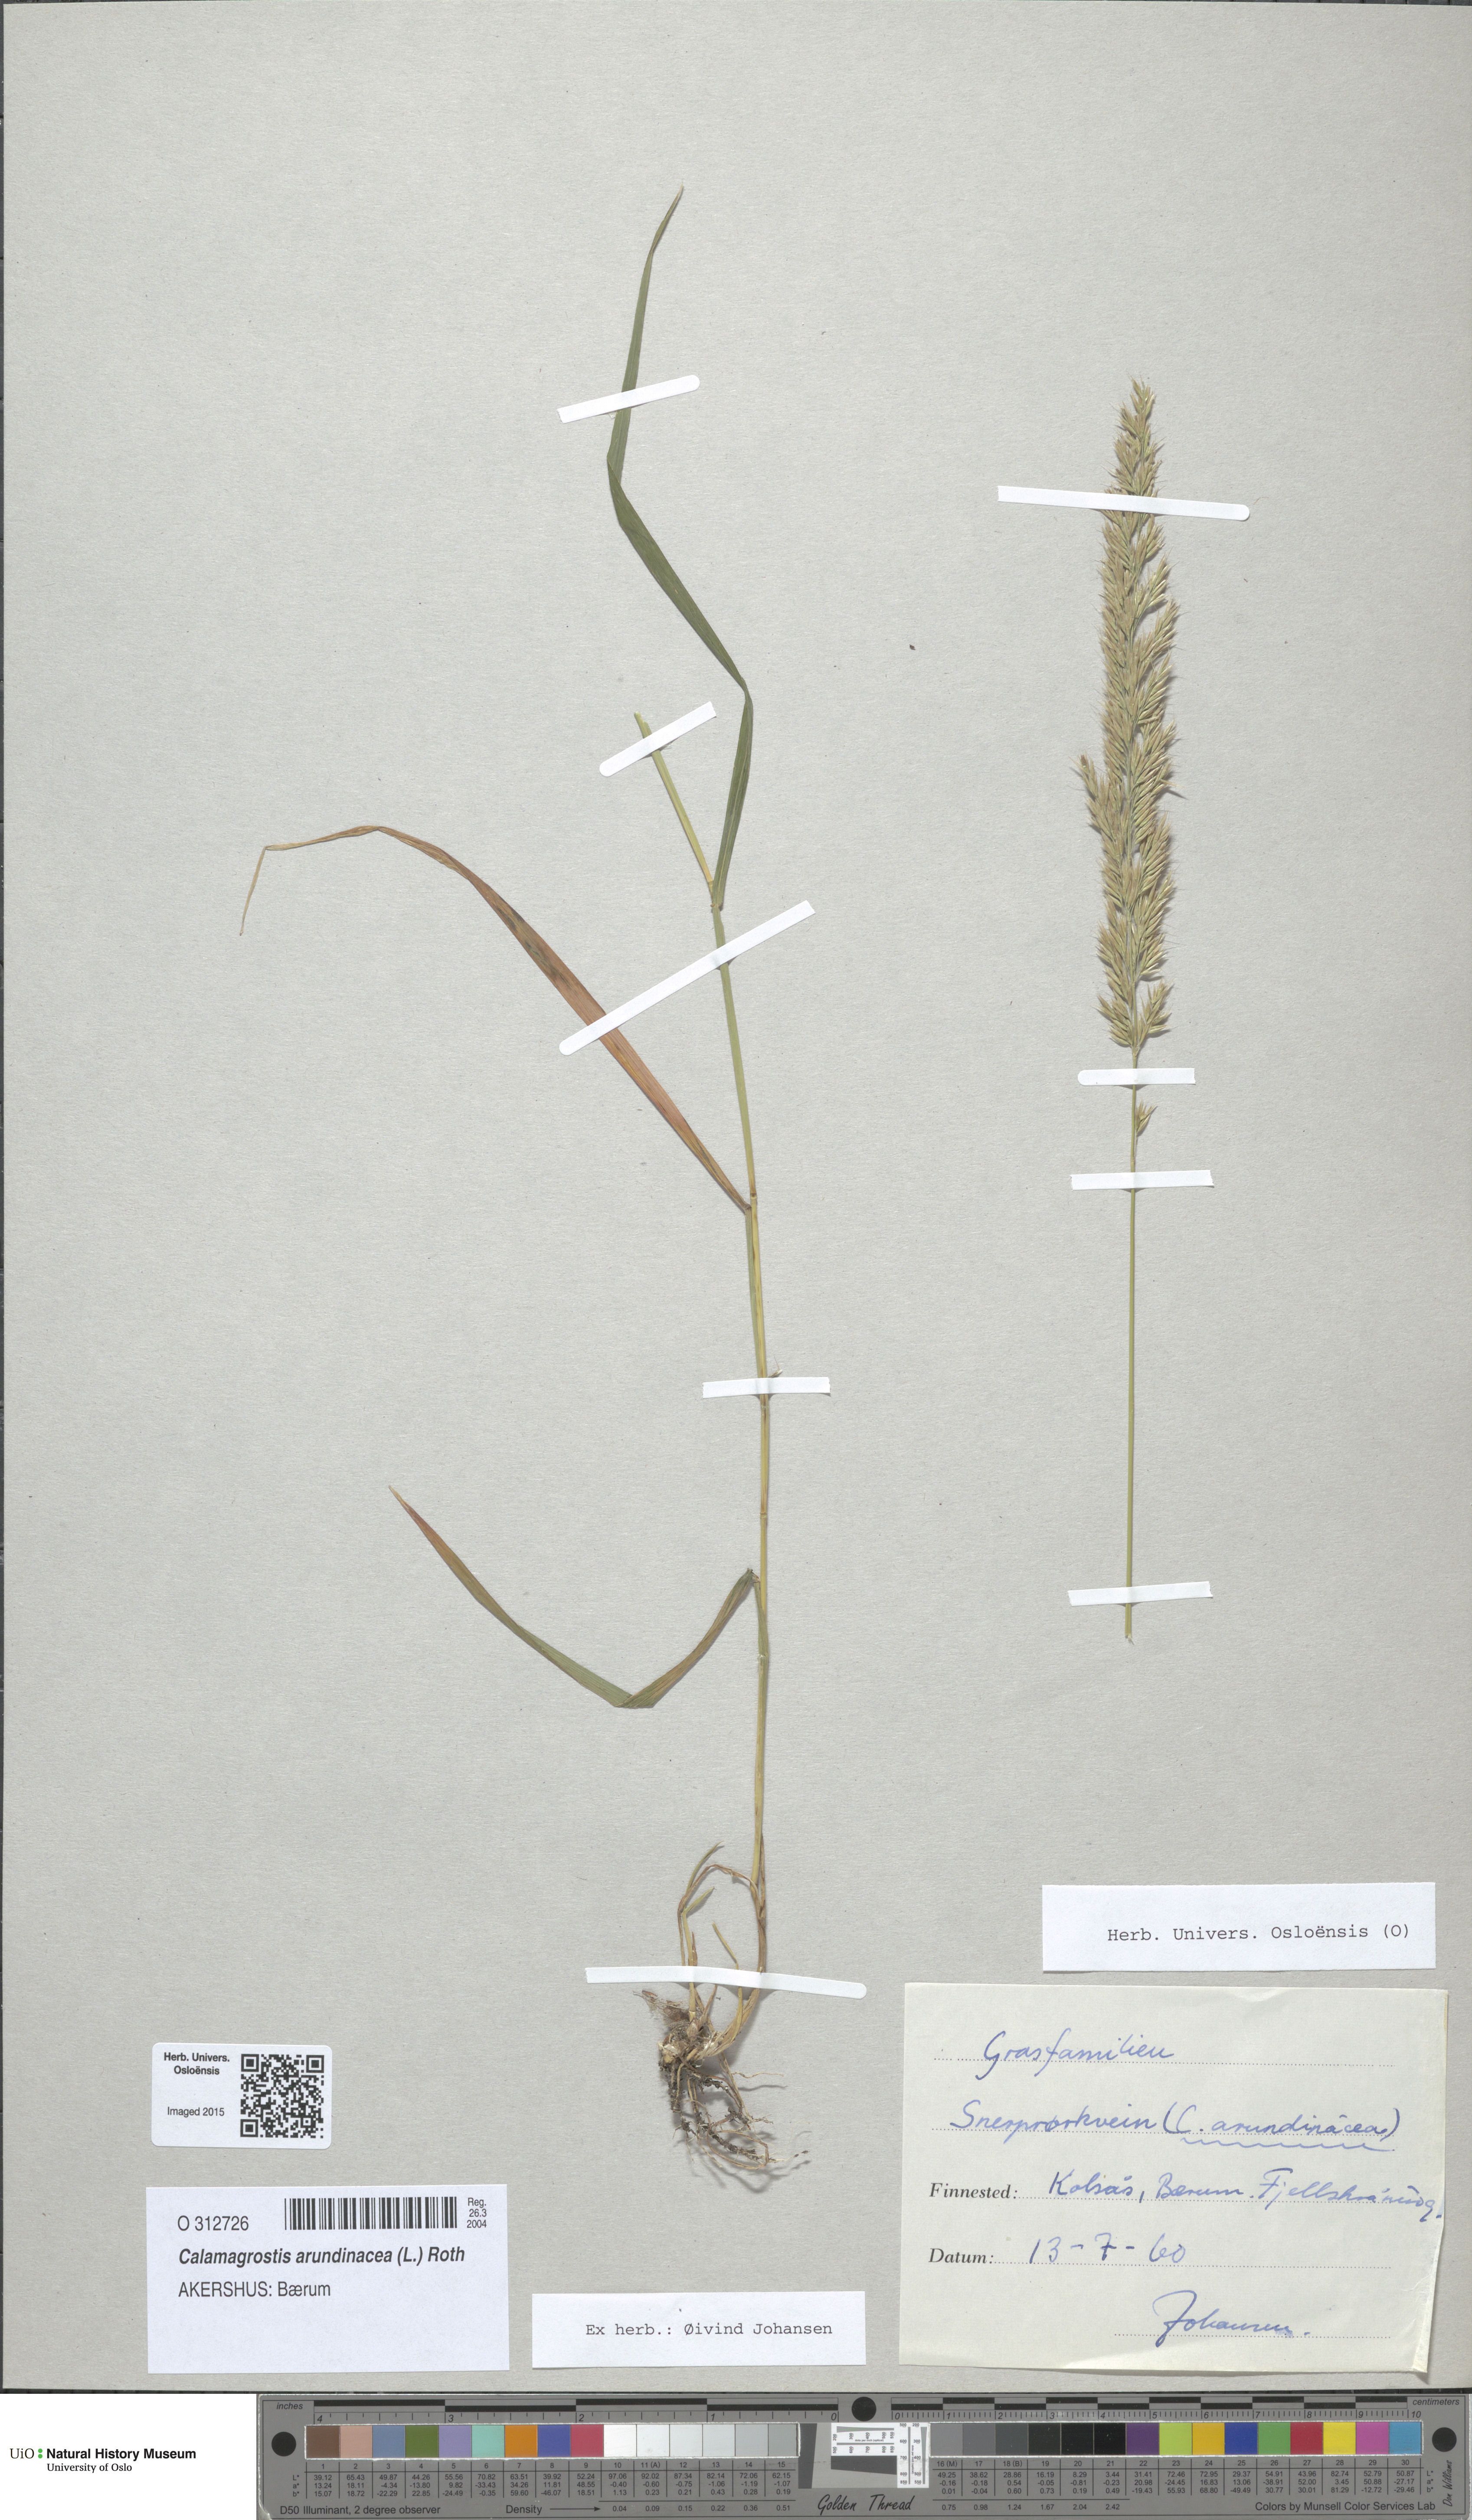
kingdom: Plantae
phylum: Tracheophyta
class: Liliopsida
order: Poales
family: Poaceae
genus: Calamagrostis
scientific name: Calamagrostis arundinacea
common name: Metskastik
